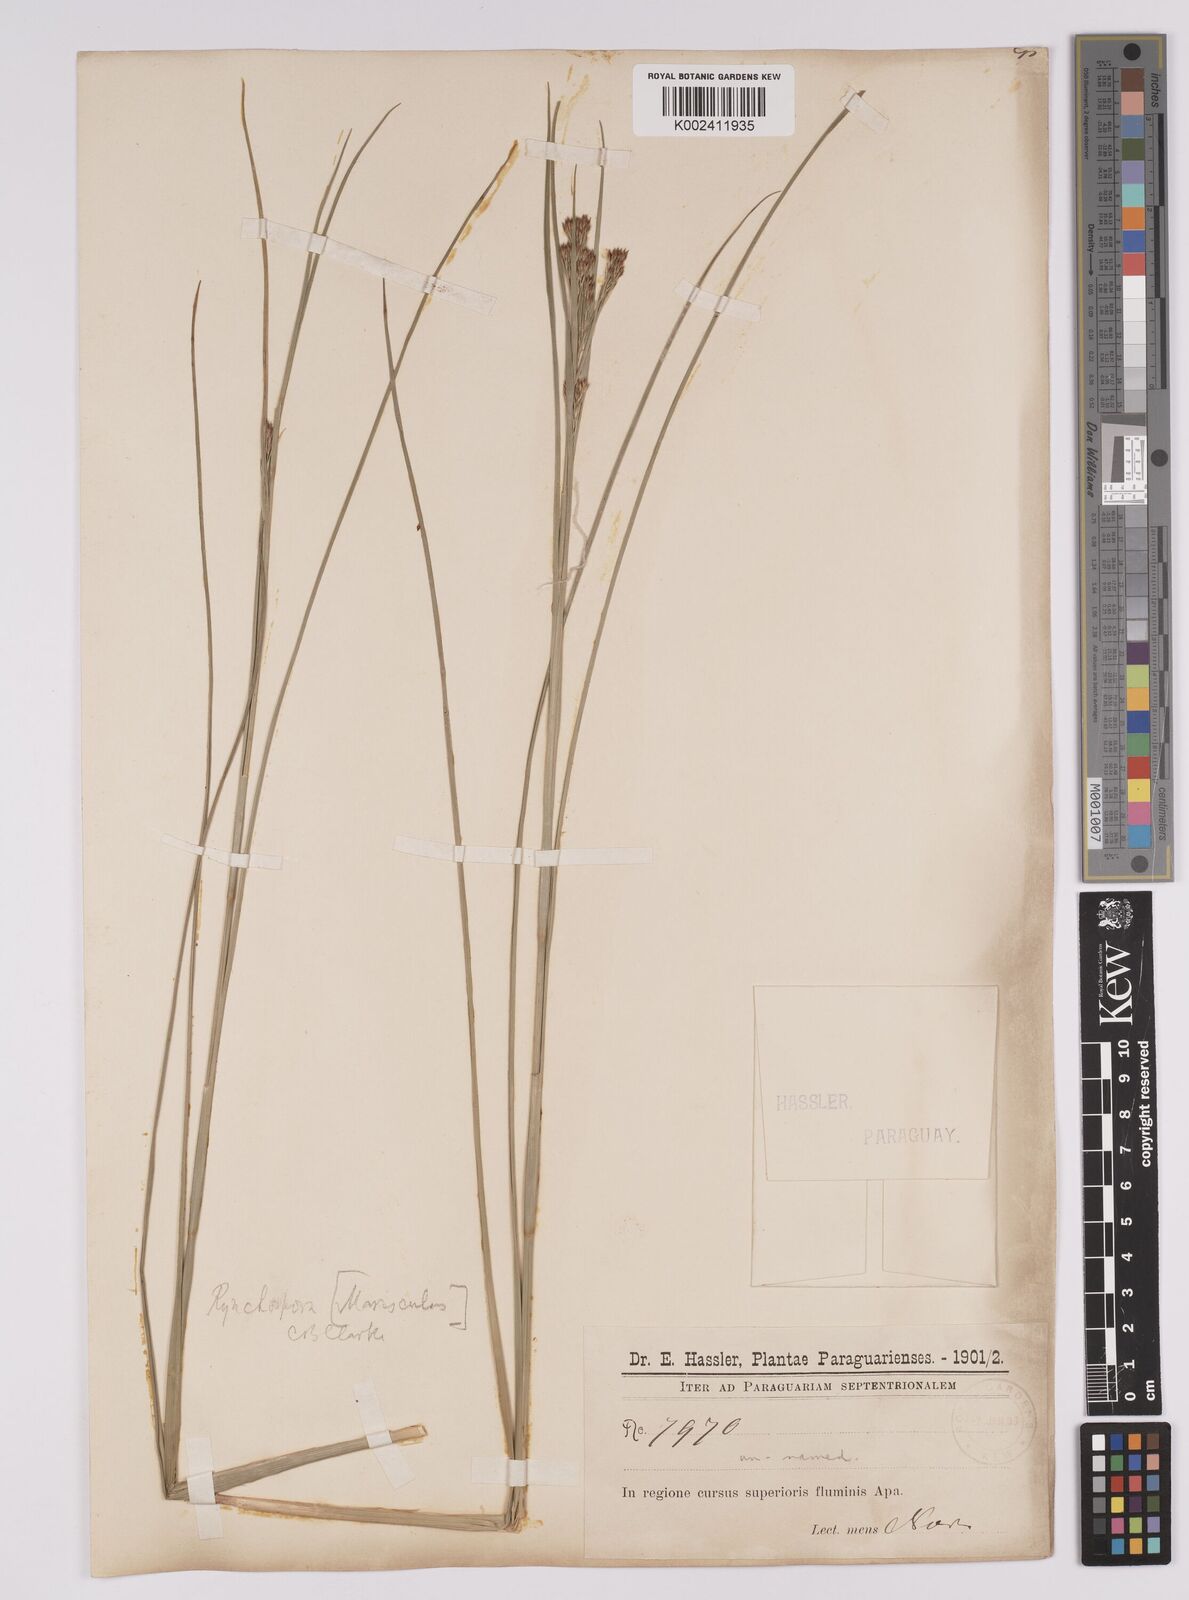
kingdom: Plantae
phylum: Tracheophyta
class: Liliopsida
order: Poales
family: Cyperaceae
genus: Rhynchospora
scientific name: Rhynchospora marisculus
